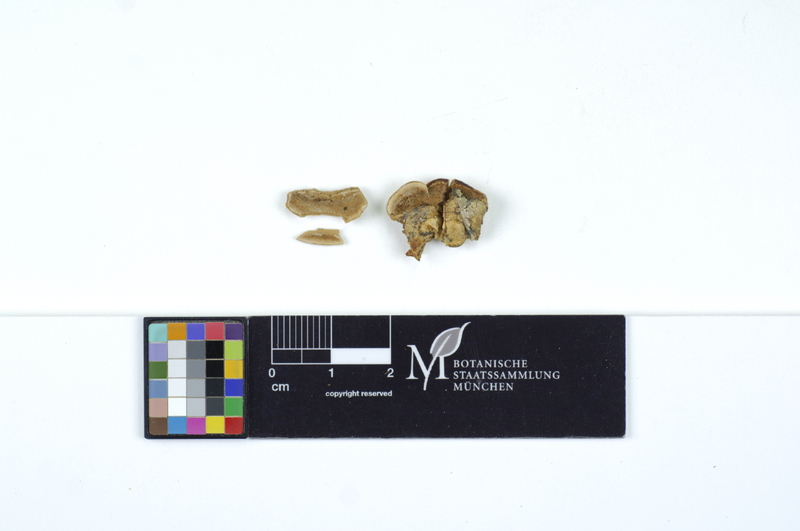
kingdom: Plantae
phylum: Tracheophyta
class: Magnoliopsida
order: Fagales
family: Betulaceae
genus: Corylus
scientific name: Corylus
